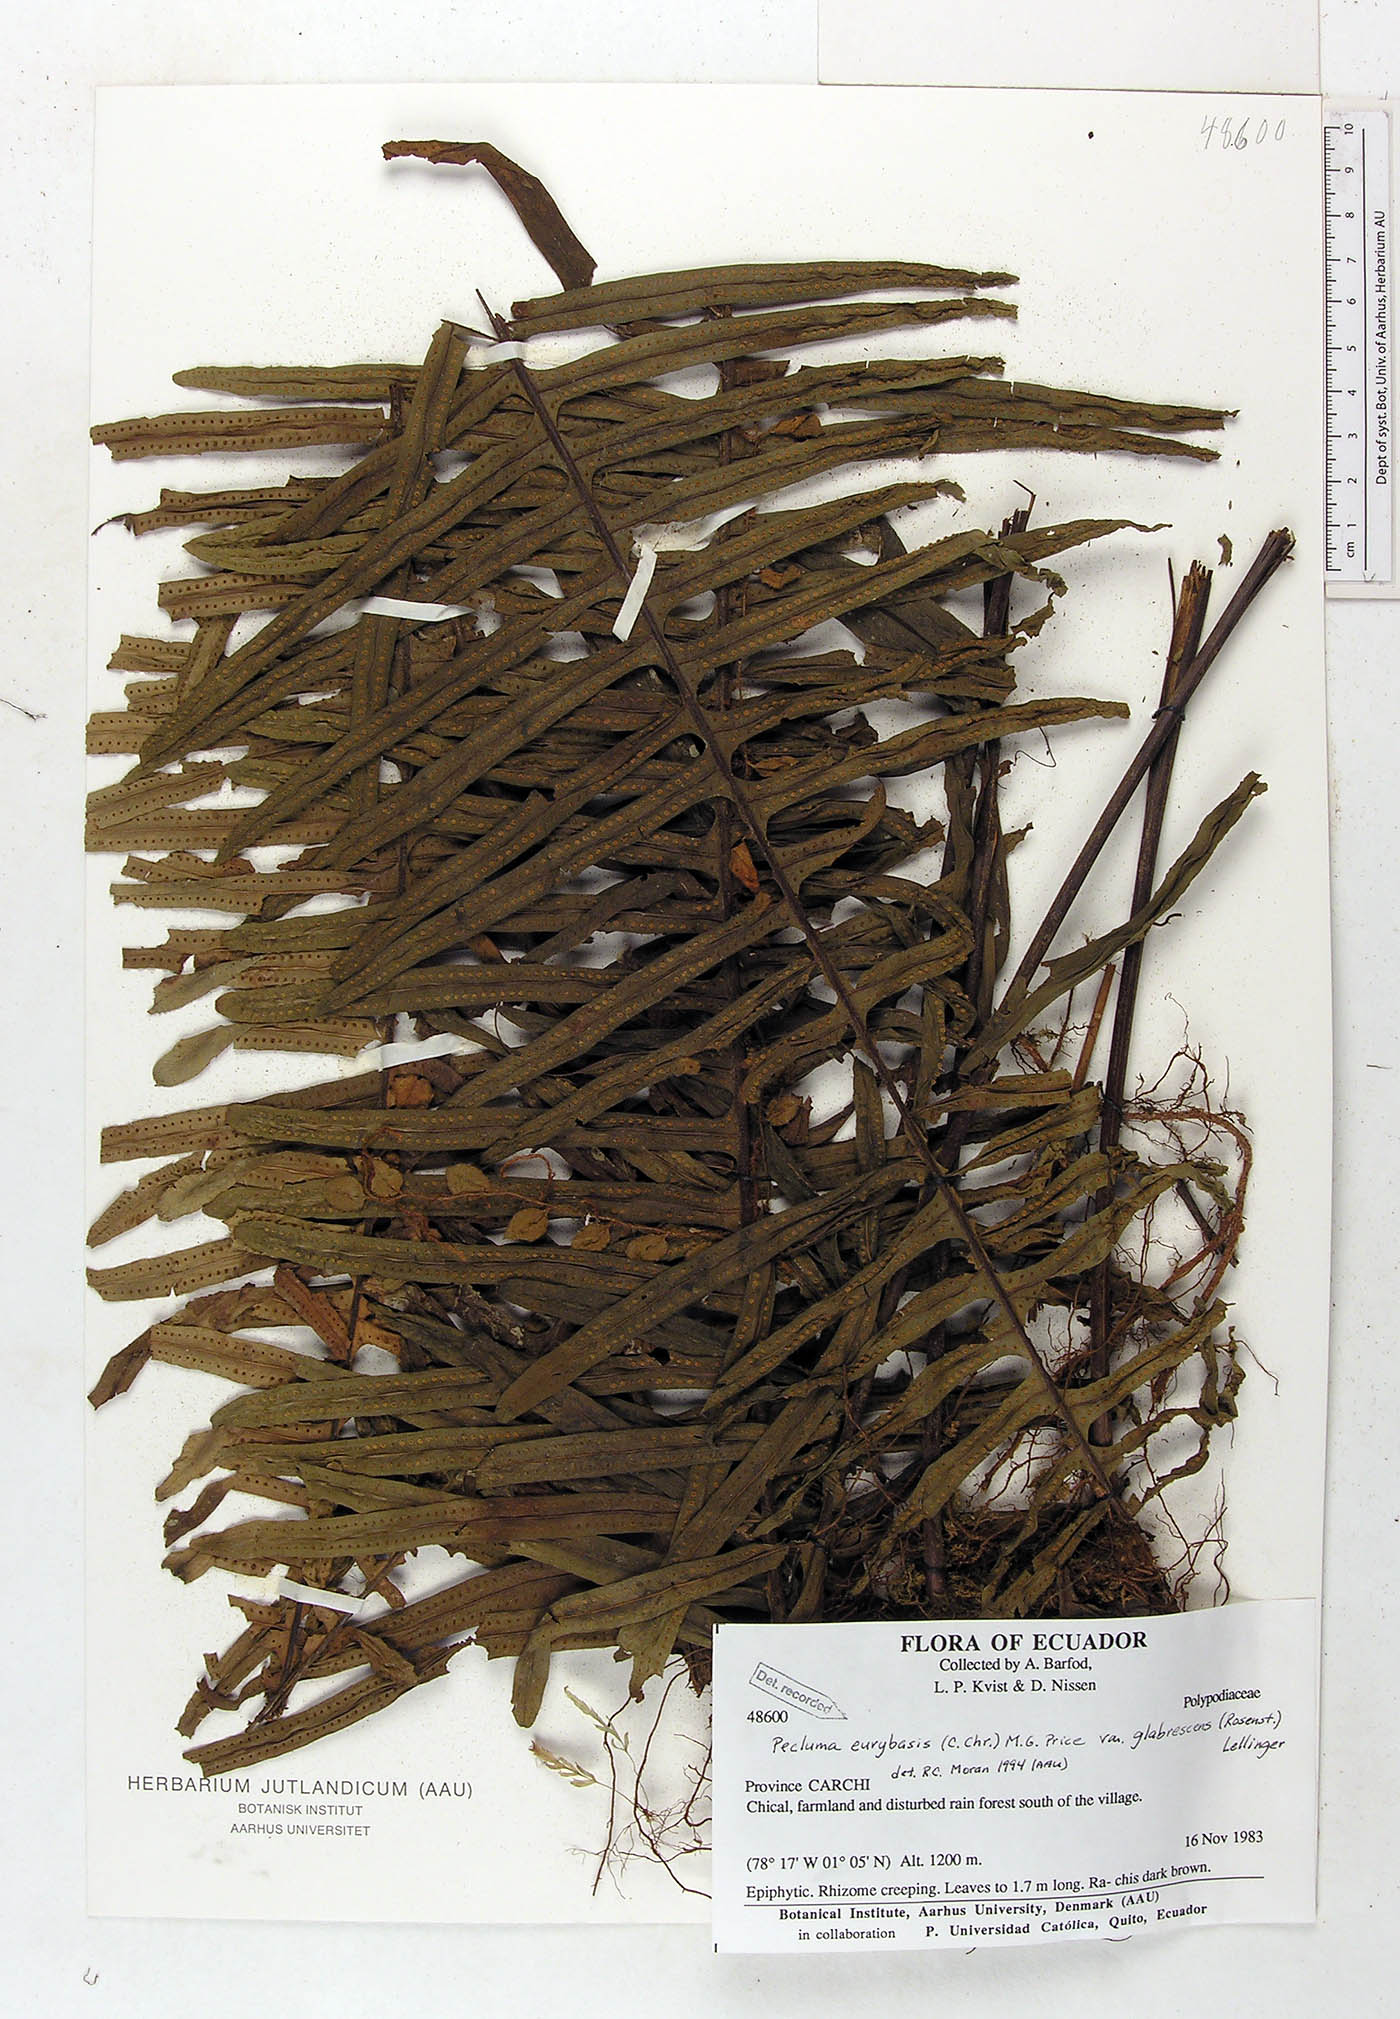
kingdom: Plantae
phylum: Tracheophyta
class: Polypodiopsida
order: Polypodiales
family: Polypodiaceae
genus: Pecluma
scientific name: Pecluma eurybasis
